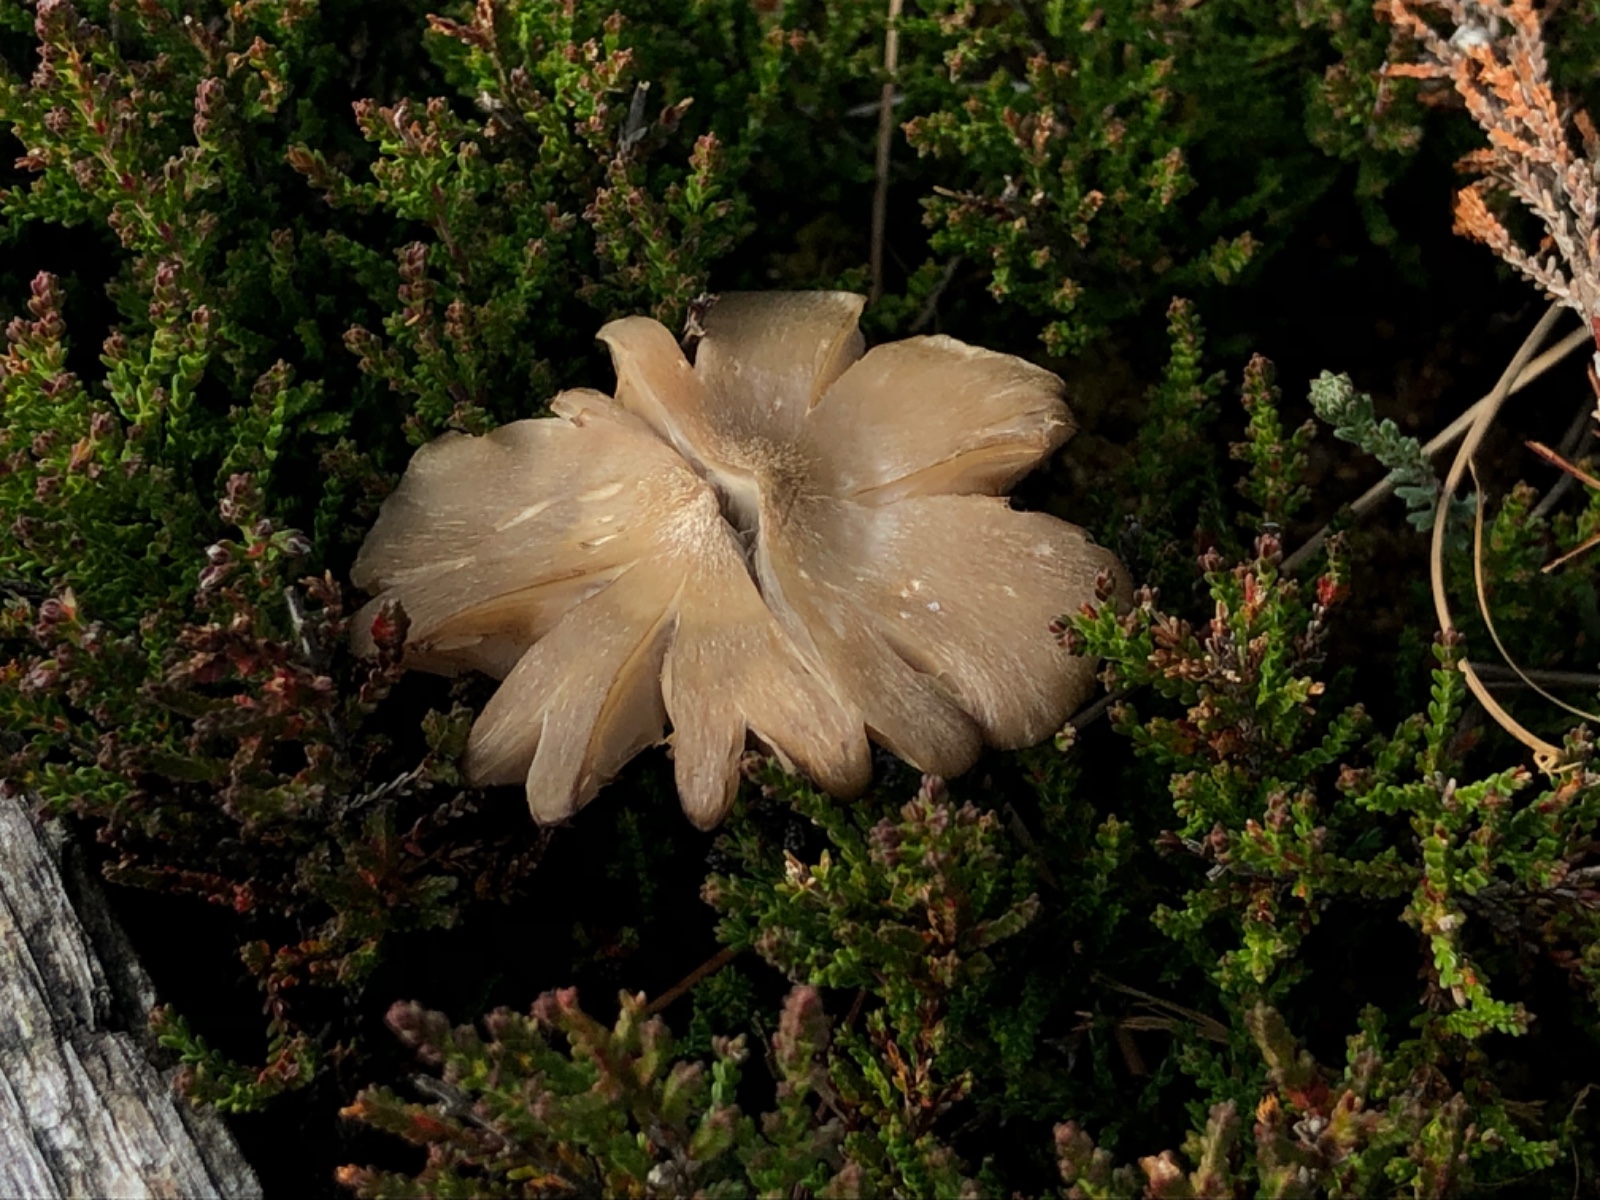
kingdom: Fungi
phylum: Basidiomycota
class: Agaricomycetes
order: Agaricales
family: Entolomataceae
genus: Entoloma
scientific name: Entoloma
